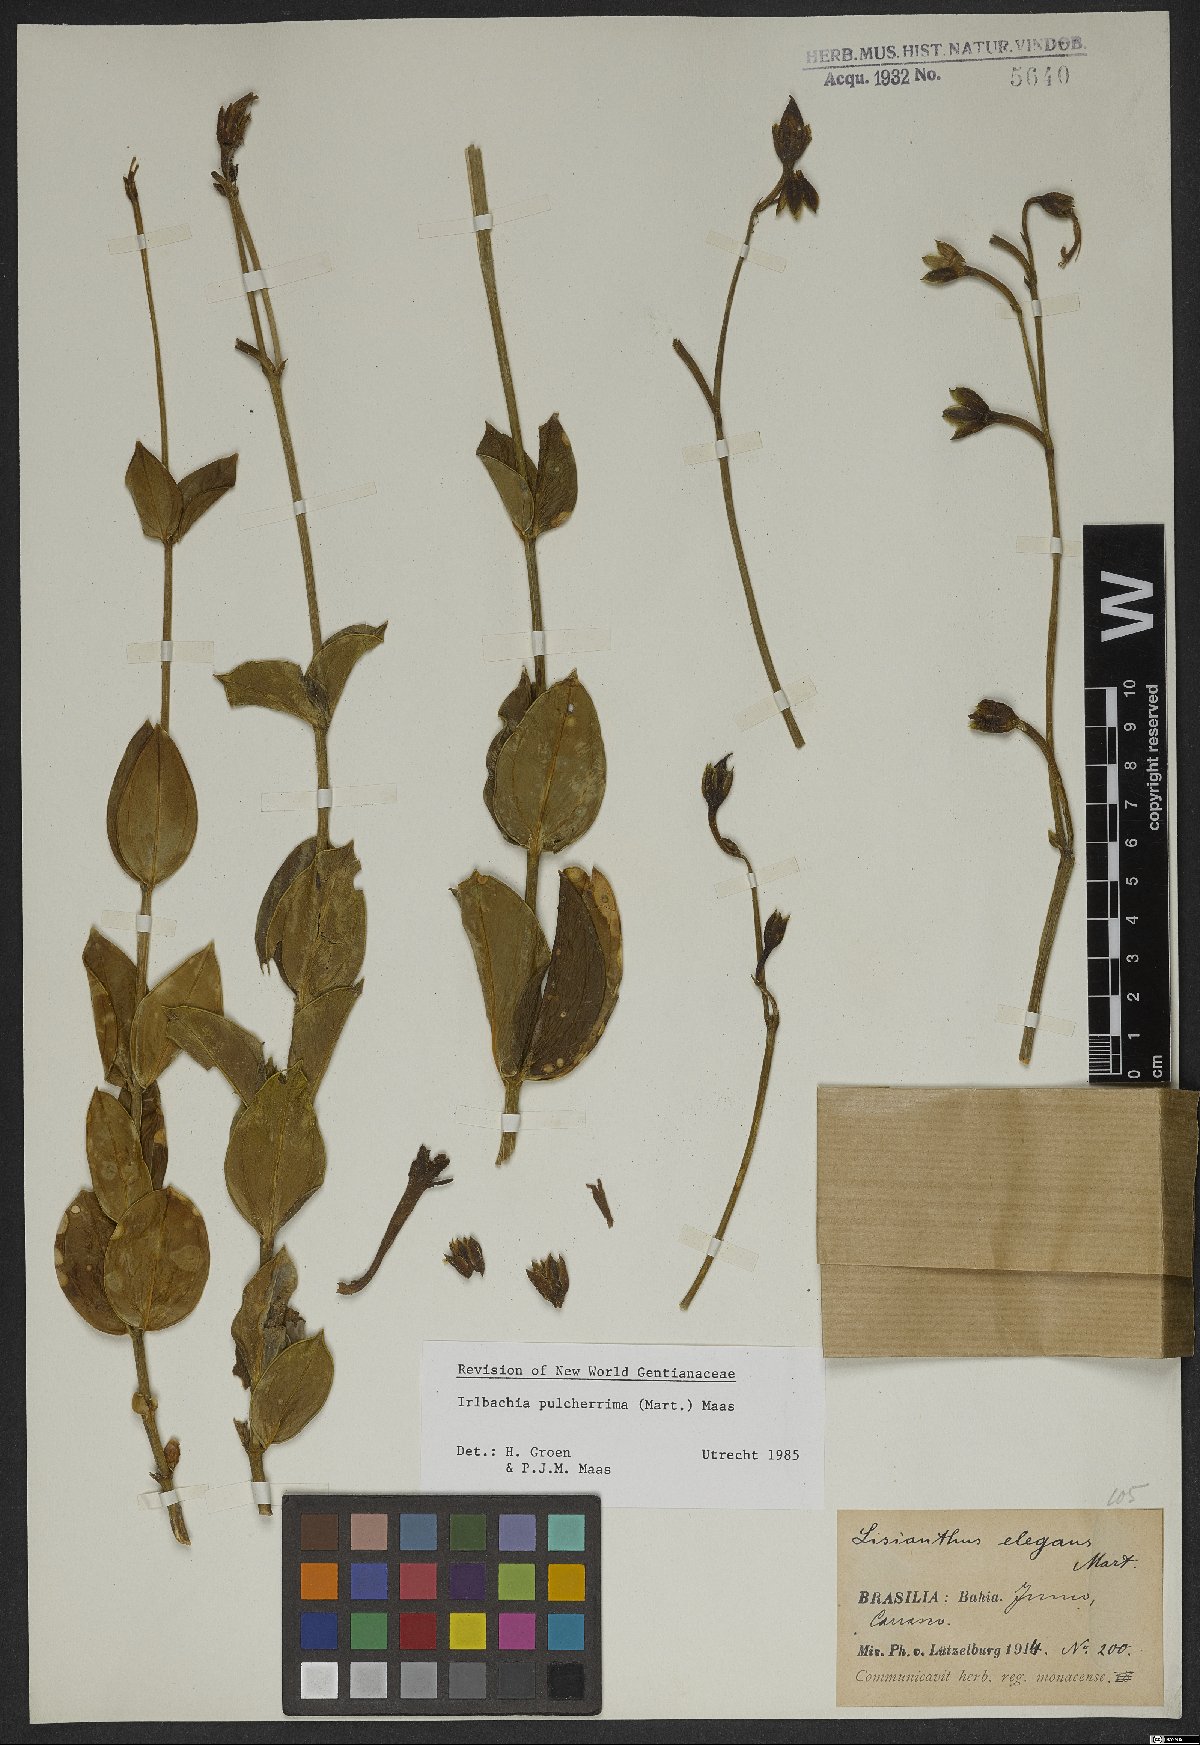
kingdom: Plantae
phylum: Tracheophyta
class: Magnoliopsida
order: Gentianales
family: Gentianaceae
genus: Calolisianthus
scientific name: Calolisianthus pulcherrimus
